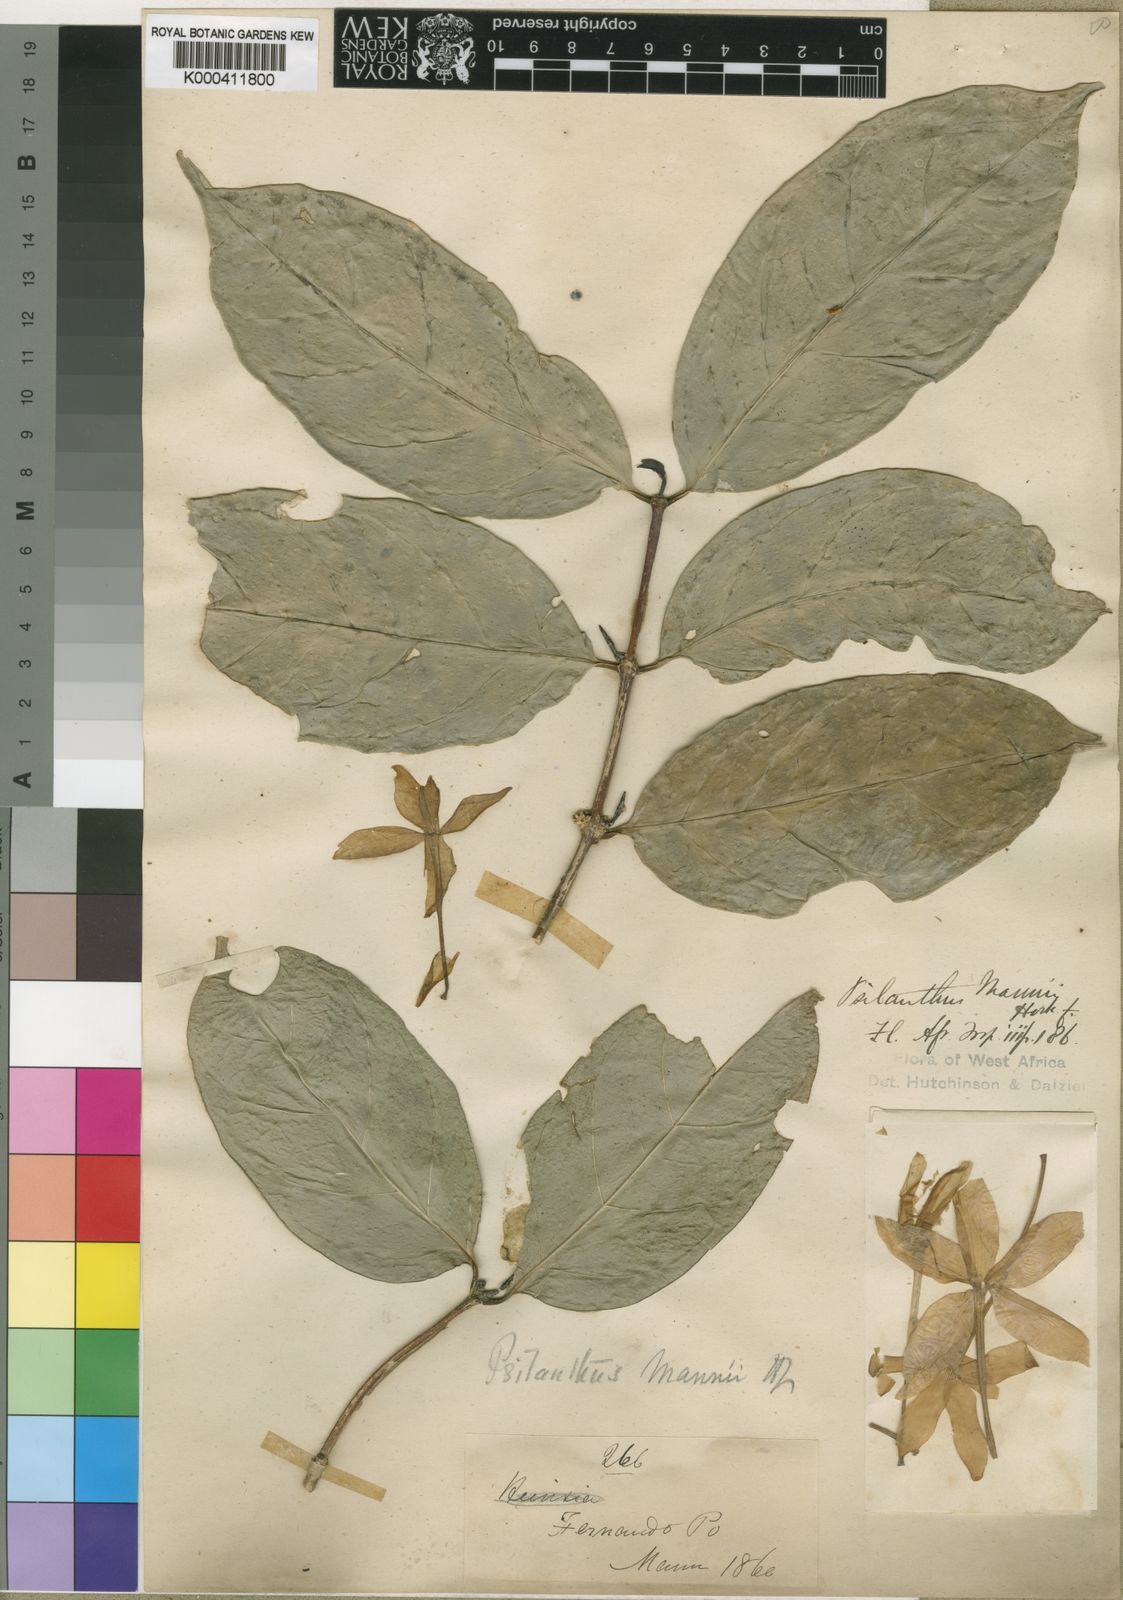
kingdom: Plantae
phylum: Tracheophyta
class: Magnoliopsida
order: Gentianales
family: Rubiaceae
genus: Coffea
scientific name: Coffea mannii
